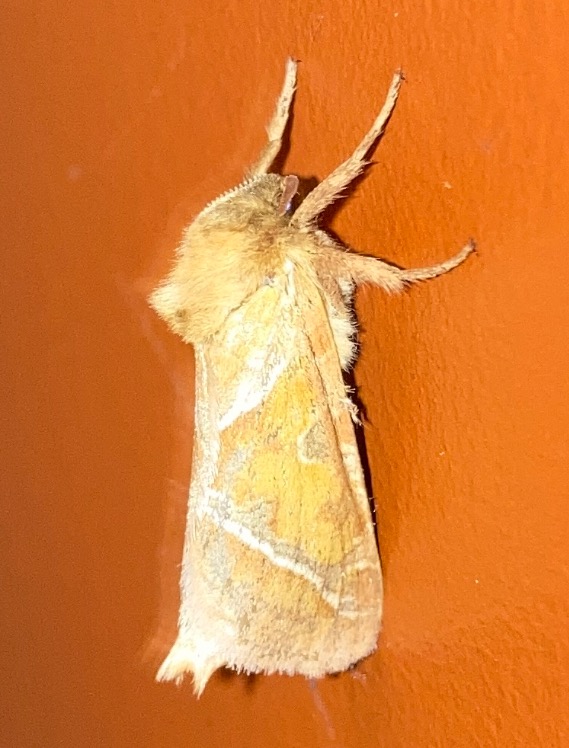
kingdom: Animalia
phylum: Arthropoda
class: Insecta
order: Lepidoptera
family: Hepialidae
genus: Triodia
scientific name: Triodia sylvina
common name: Skræpperodæder
